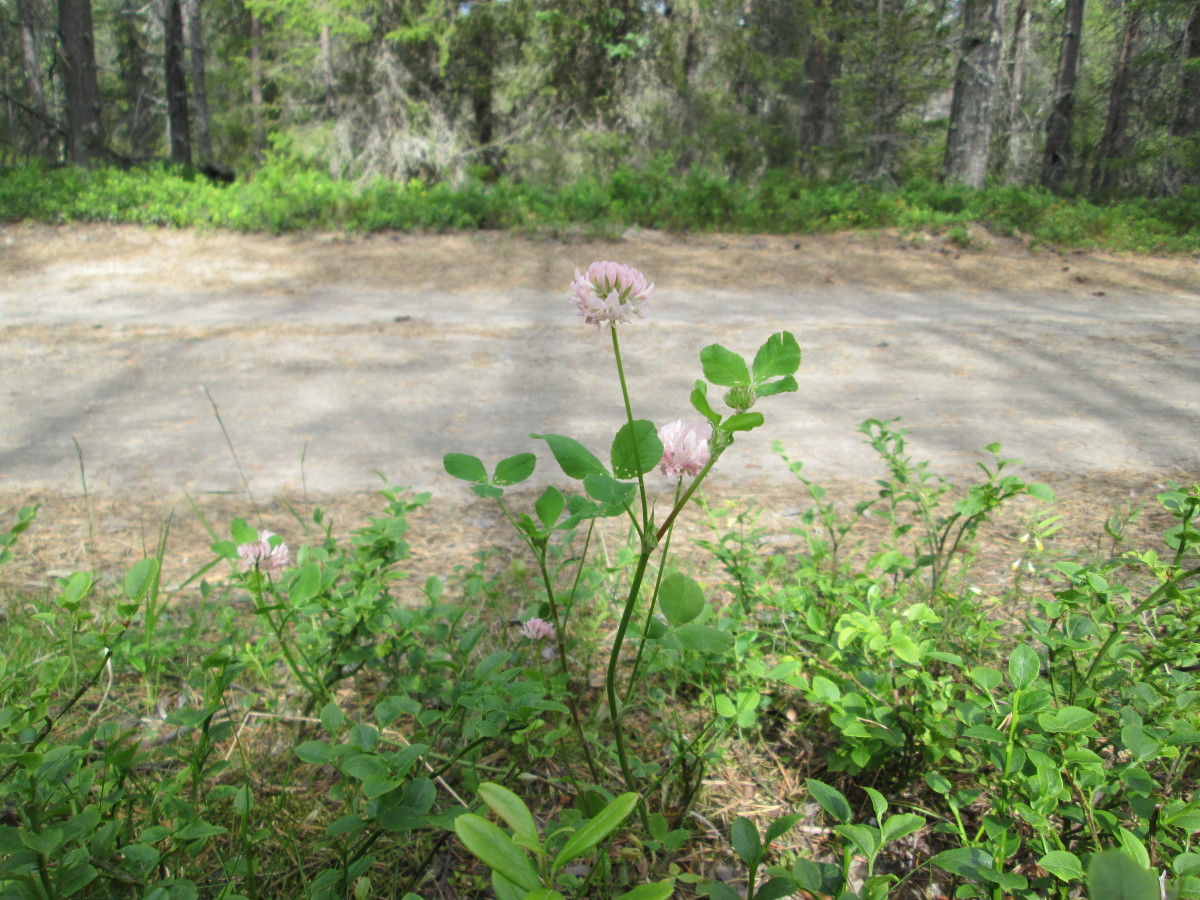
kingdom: Plantae
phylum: Tracheophyta
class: Magnoliopsida
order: Fabales
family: Fabaceae
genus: Trifolium
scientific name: Trifolium hybridum
